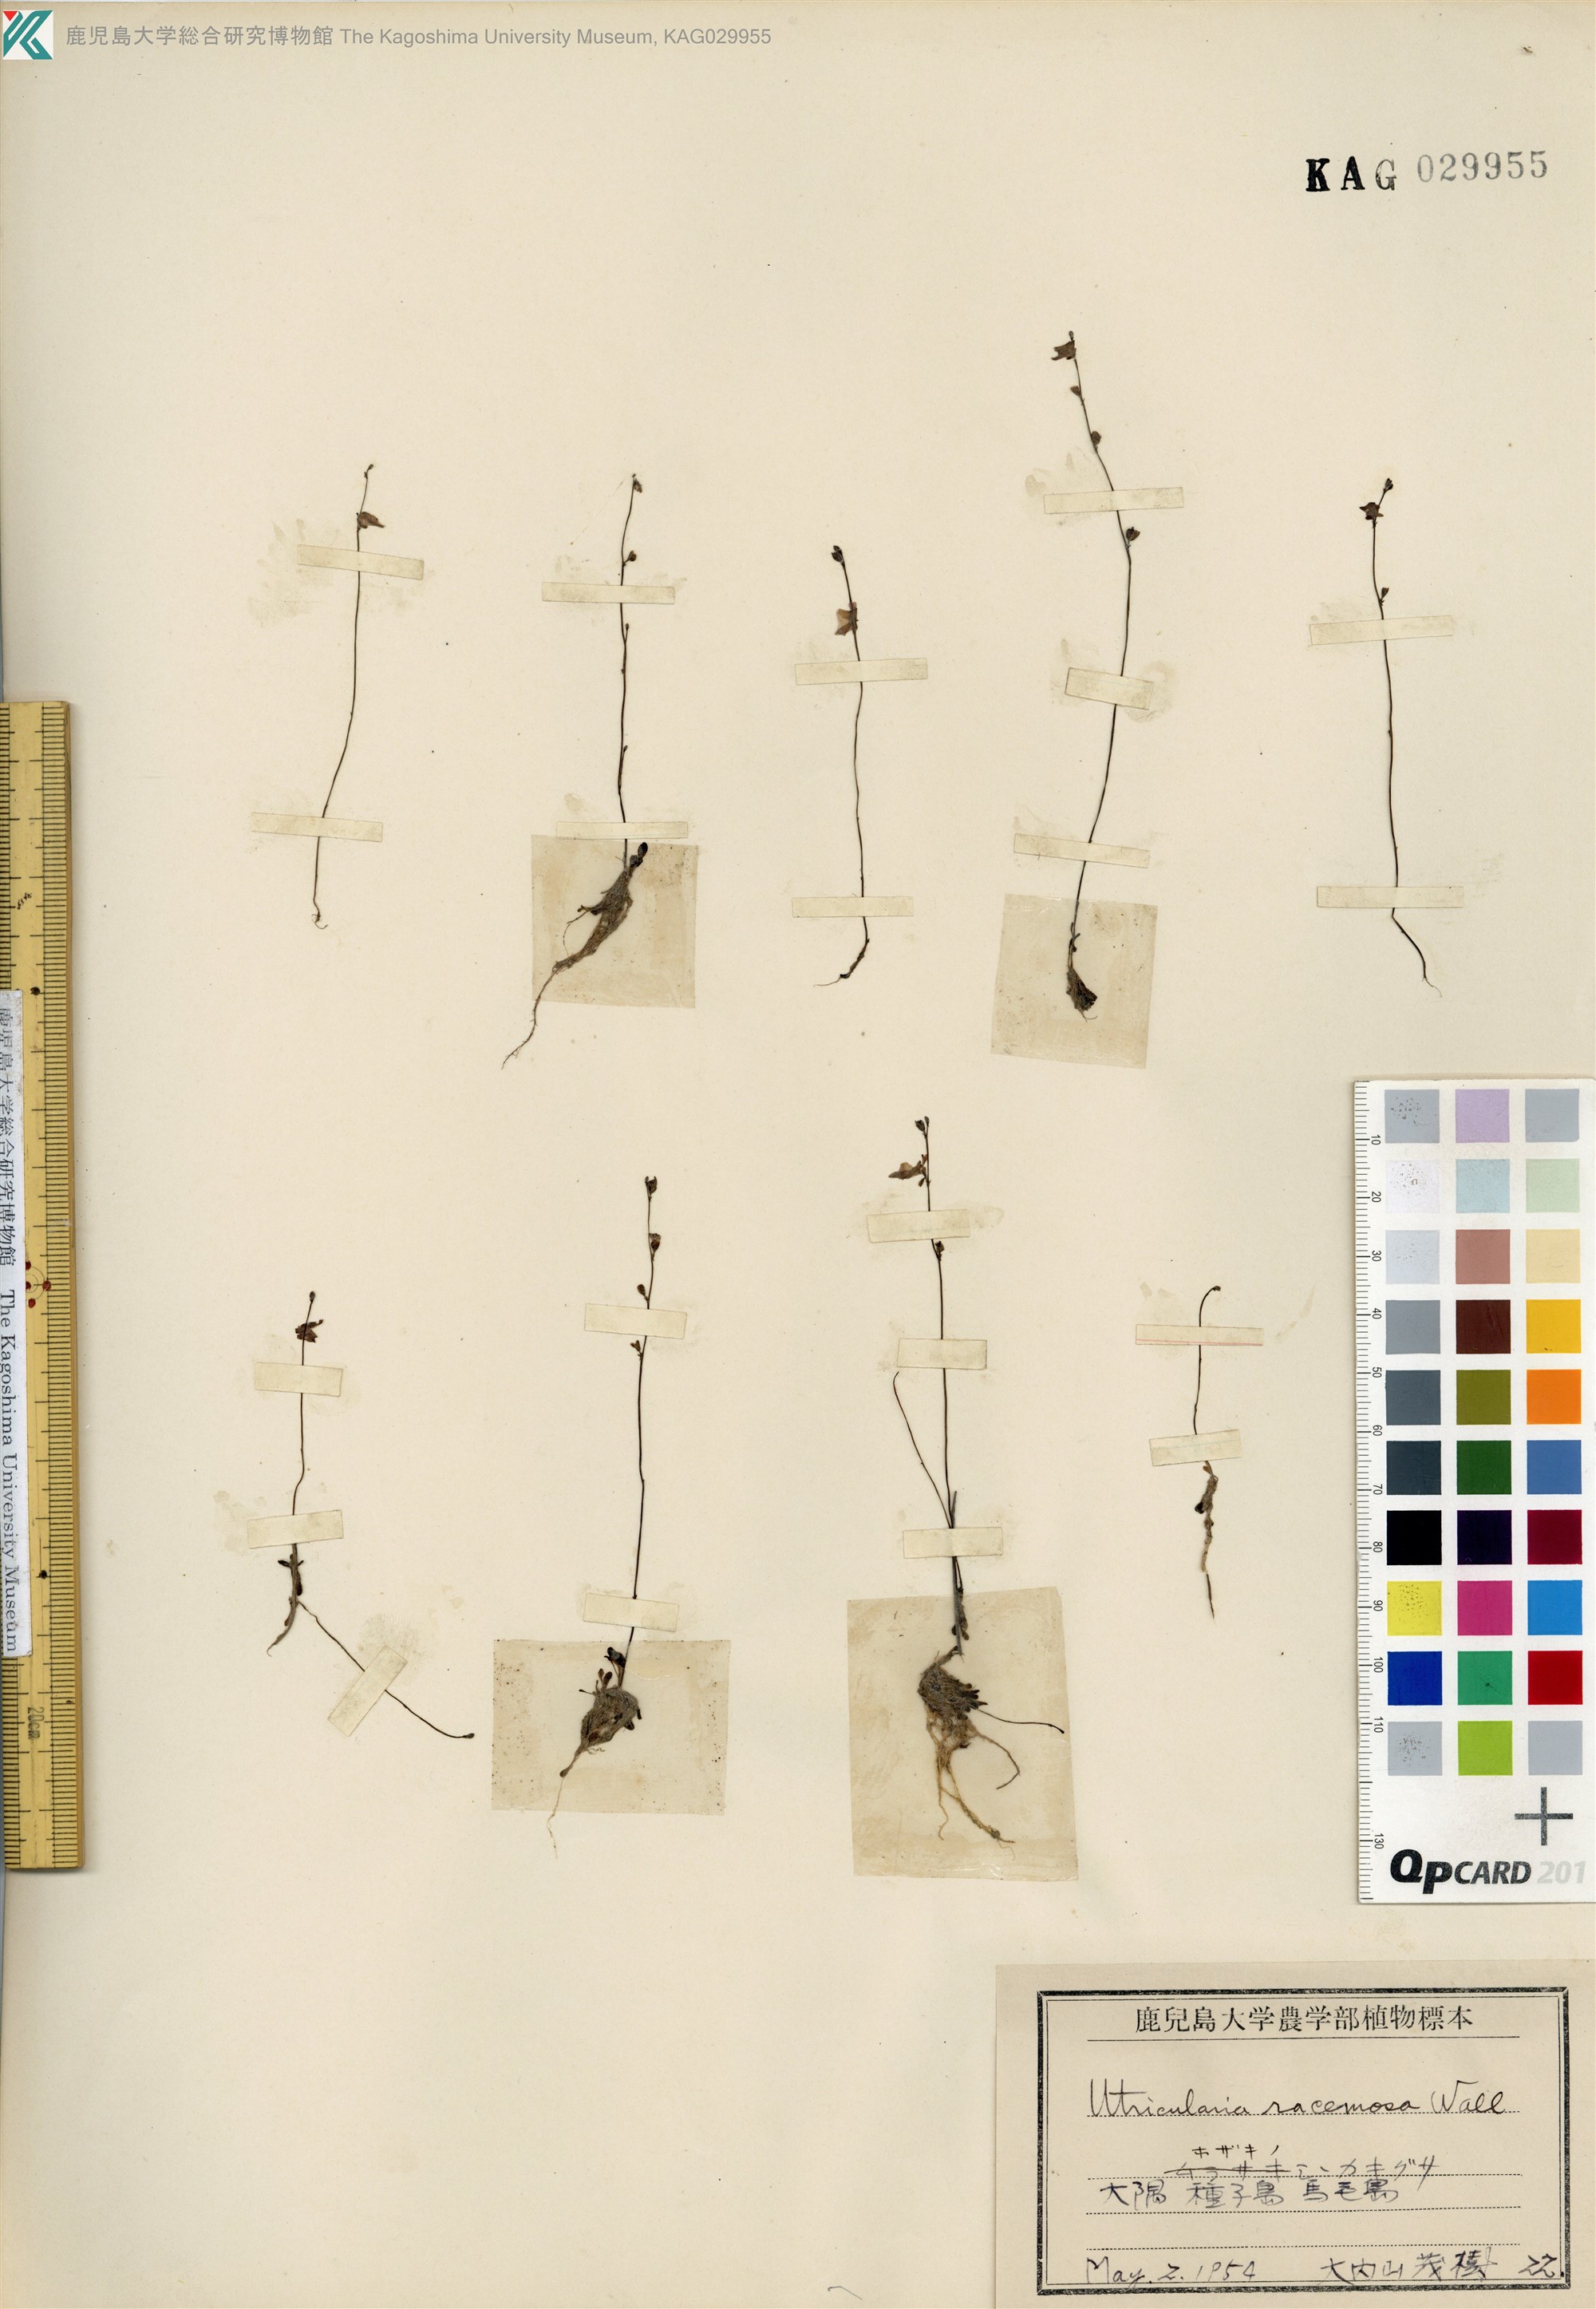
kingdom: Plantae
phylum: Tracheophyta
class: Magnoliopsida
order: Lamiales
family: Lentibulariaceae
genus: Utricularia
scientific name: Utricularia caerulea
